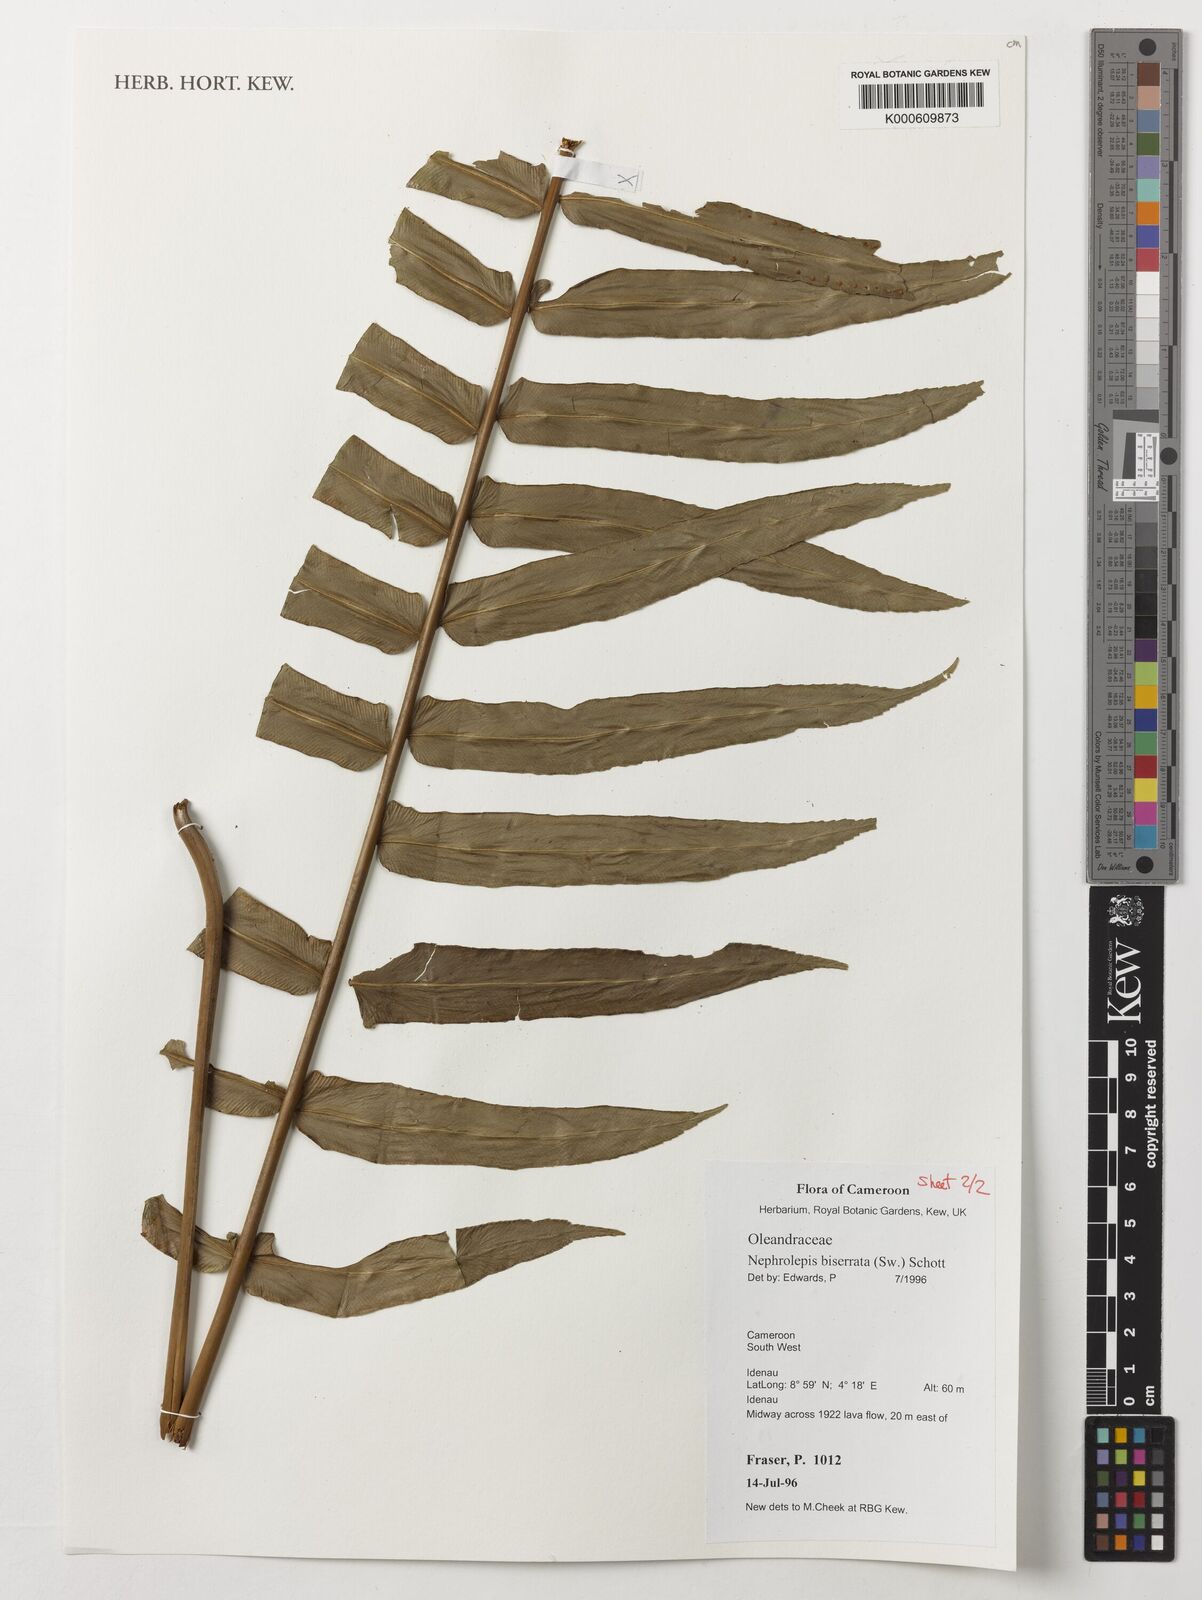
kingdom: Plantae
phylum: Tracheophyta
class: Polypodiopsida
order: Polypodiales
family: Nephrolepidaceae
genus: Nephrolepis
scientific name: Nephrolepis biserrata
